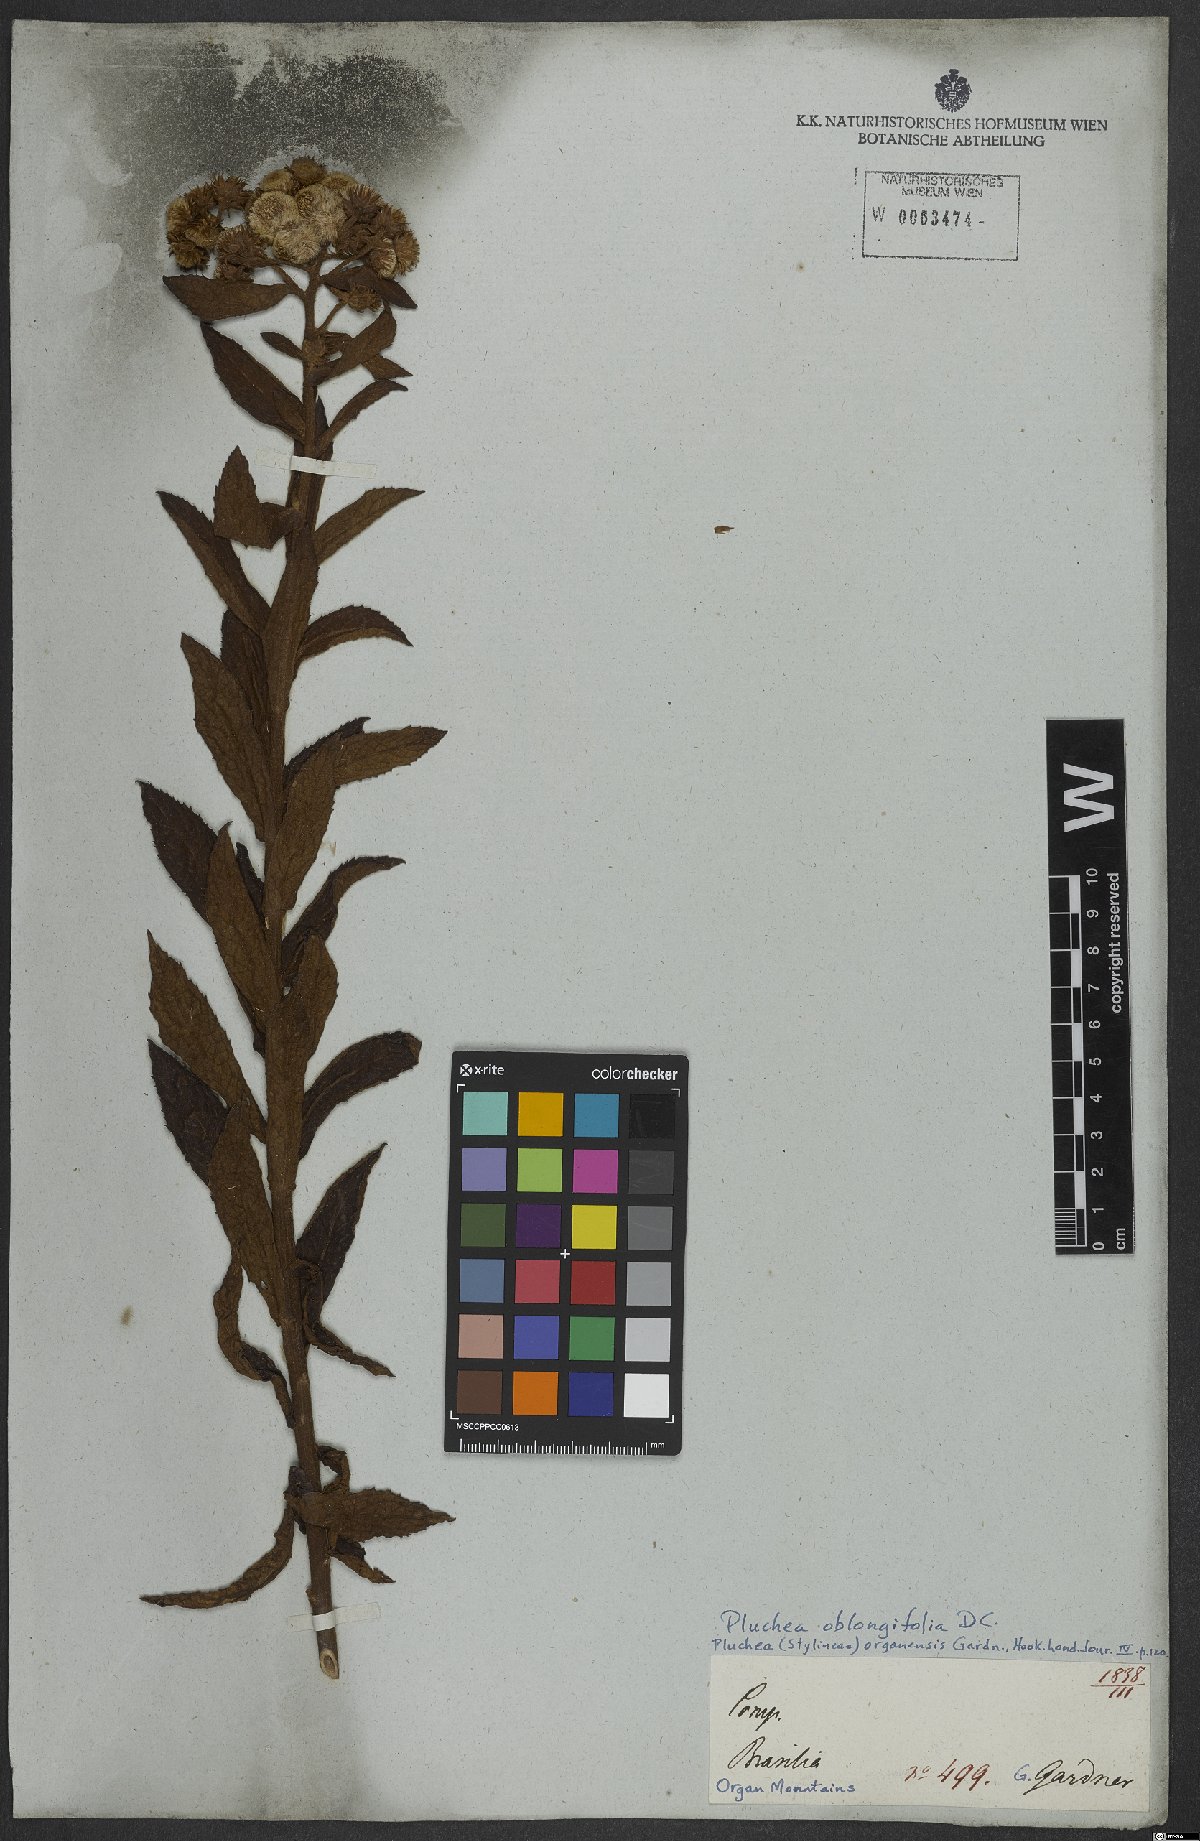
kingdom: Plantae
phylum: Tracheophyta
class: Magnoliopsida
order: Asterales
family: Asteraceae
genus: Pluchea
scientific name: Pluchea oblongifolia
